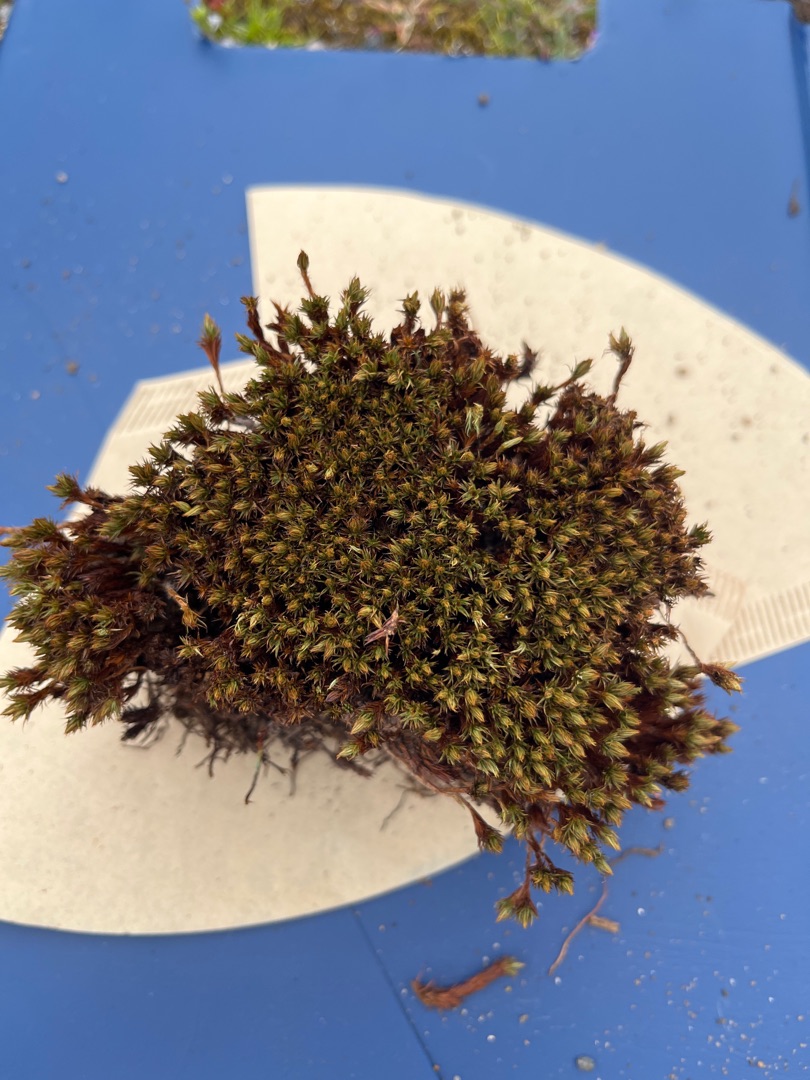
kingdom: Plantae
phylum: Bryophyta
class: Polytrichopsida
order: Polytrichales
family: Polytrichaceae
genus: Polytrichum
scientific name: Polytrichum juniperinum
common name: Ene-jomfruhår
